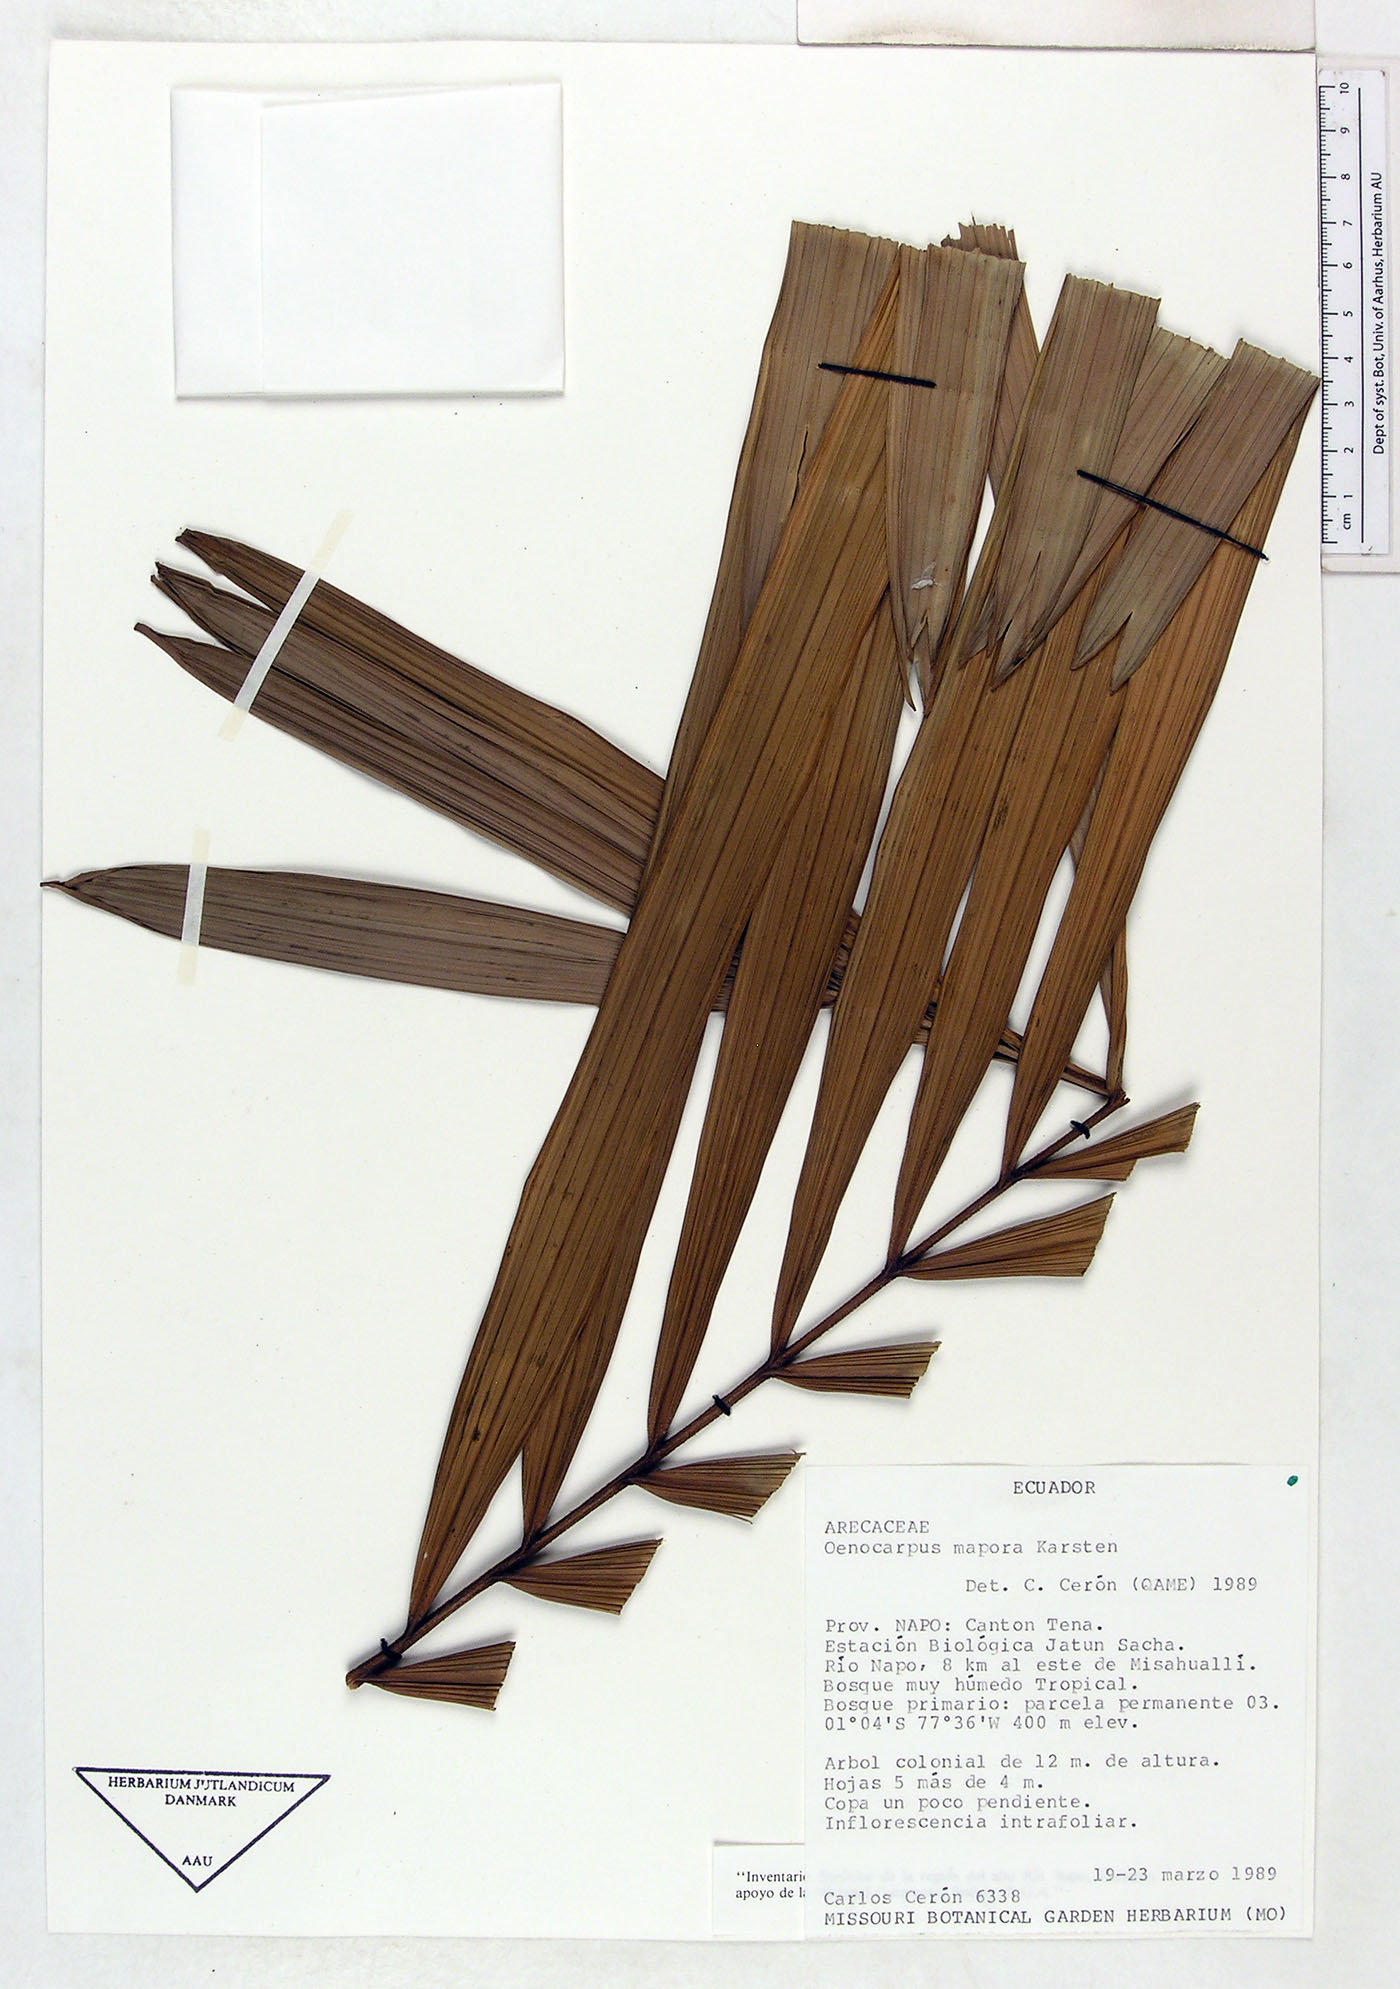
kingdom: Plantae
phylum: Tracheophyta
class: Liliopsida
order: Arecales
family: Arecaceae
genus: Oenocarpus
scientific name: Oenocarpus mapora
